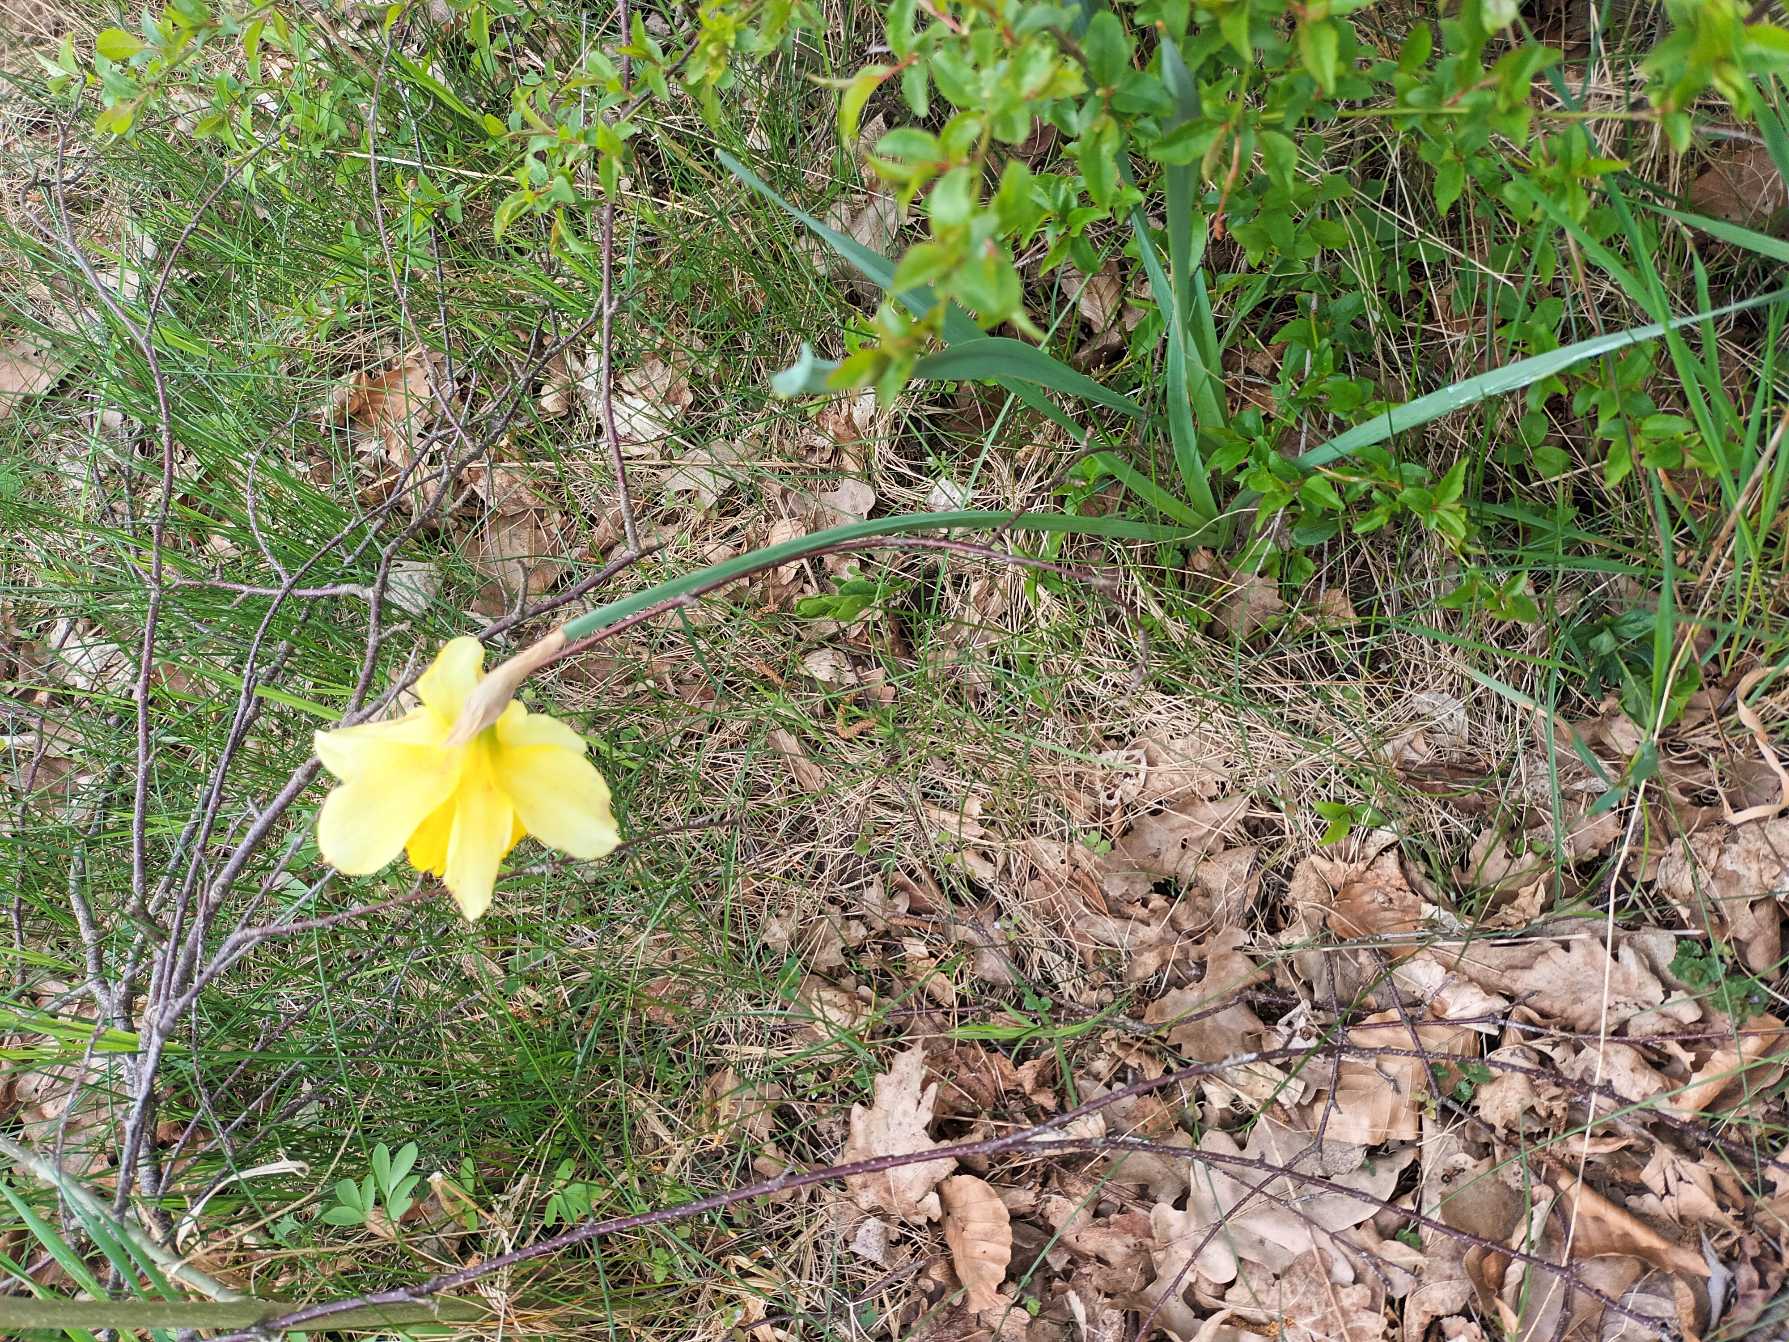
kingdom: Plantae
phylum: Tracheophyta
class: Liliopsida
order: Asparagales
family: Amaryllidaceae
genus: Narcissus
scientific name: Narcissus pseudonarcissus
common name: Påskelilje
